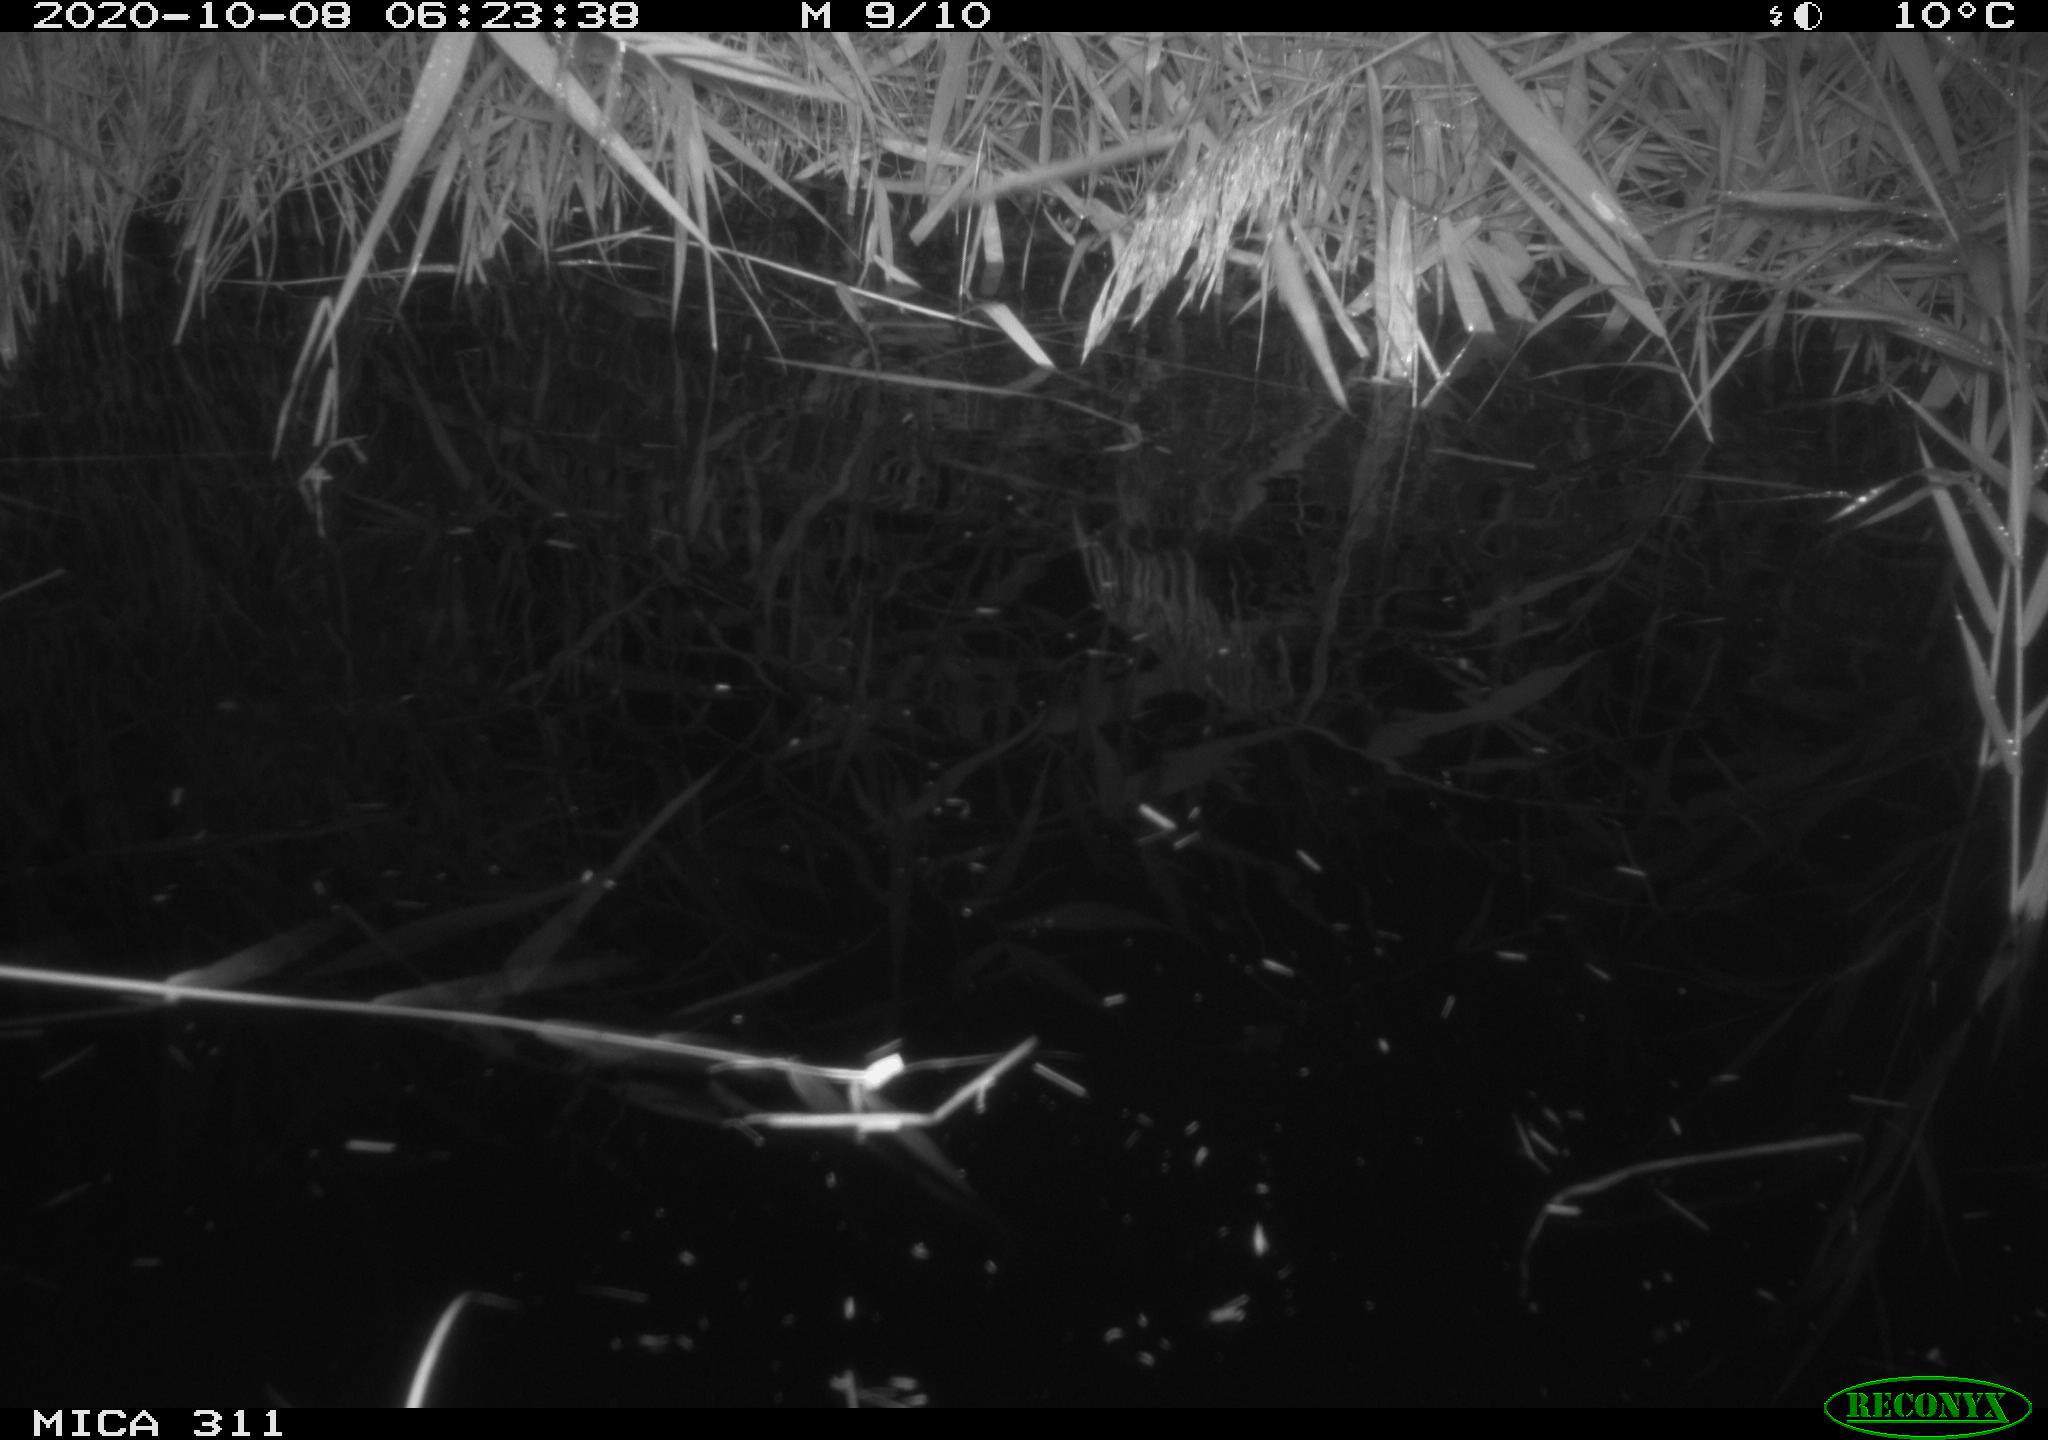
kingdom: Animalia
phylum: Chordata
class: Mammalia
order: Rodentia
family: Muridae
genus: Rattus
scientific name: Rattus norvegicus
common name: Brown rat
